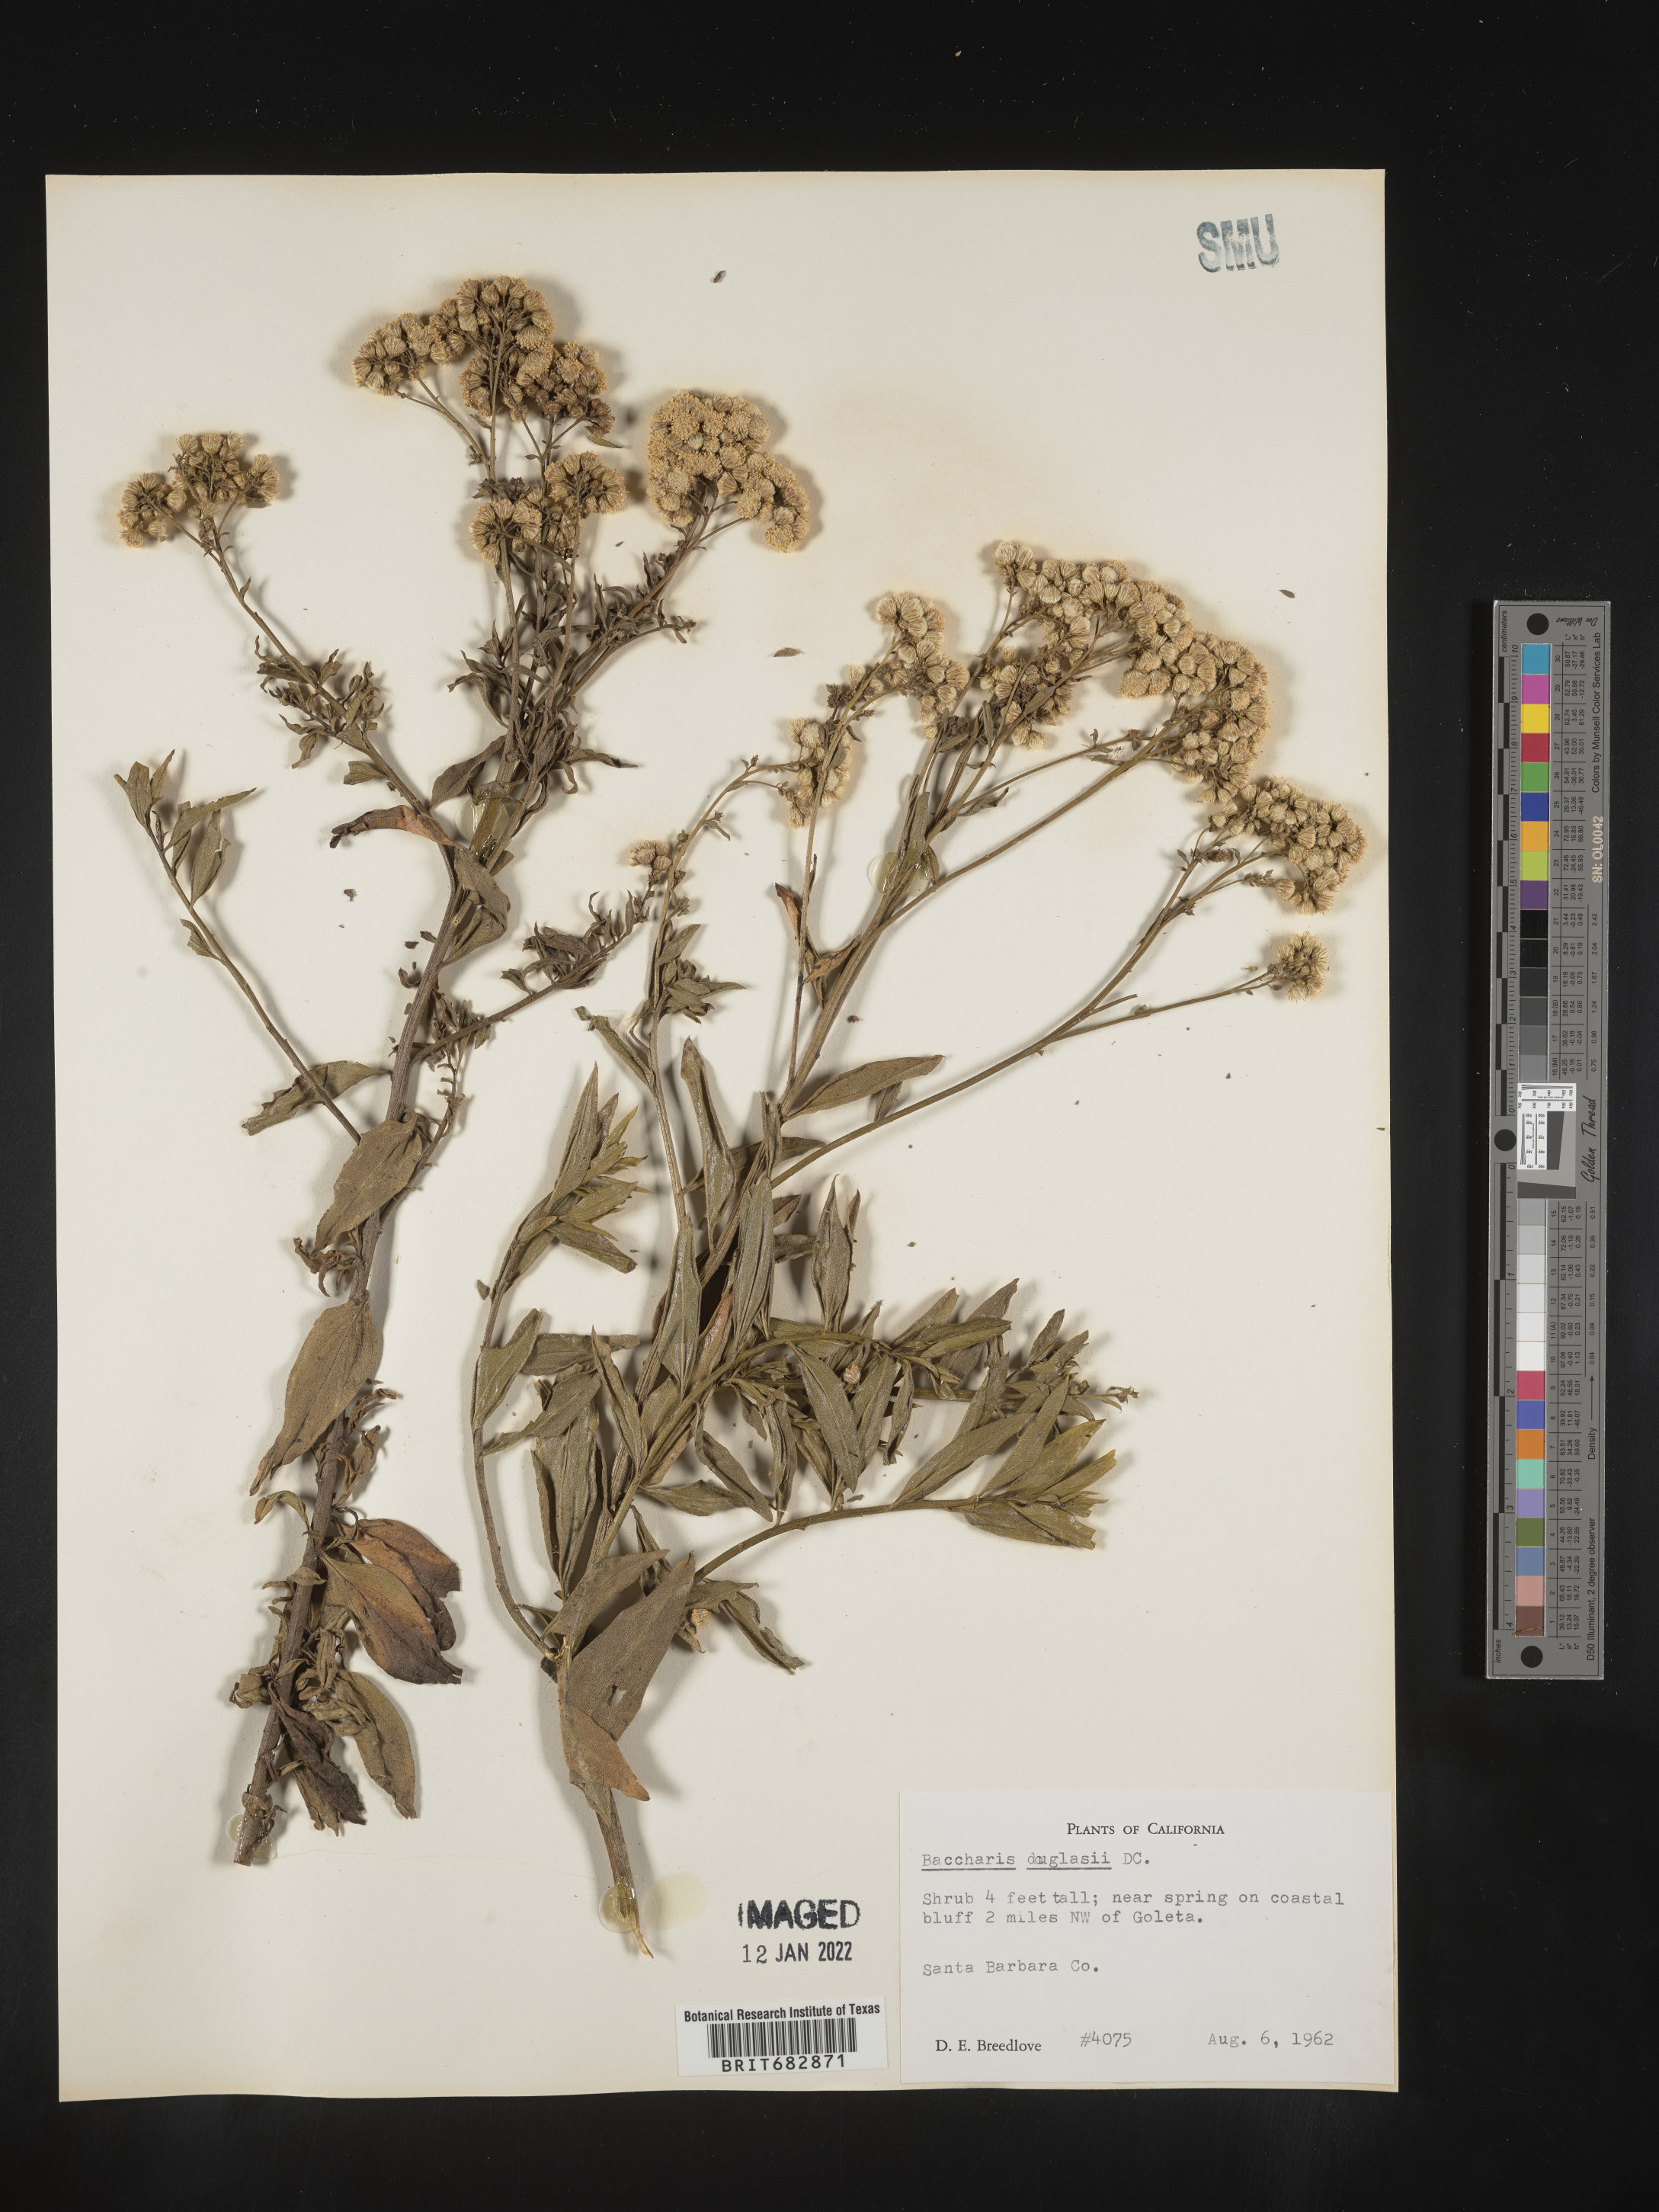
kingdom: Plantae
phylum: Tracheophyta
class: Magnoliopsida
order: Asterales
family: Asteraceae
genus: Baccharis
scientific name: Baccharis douglasii
